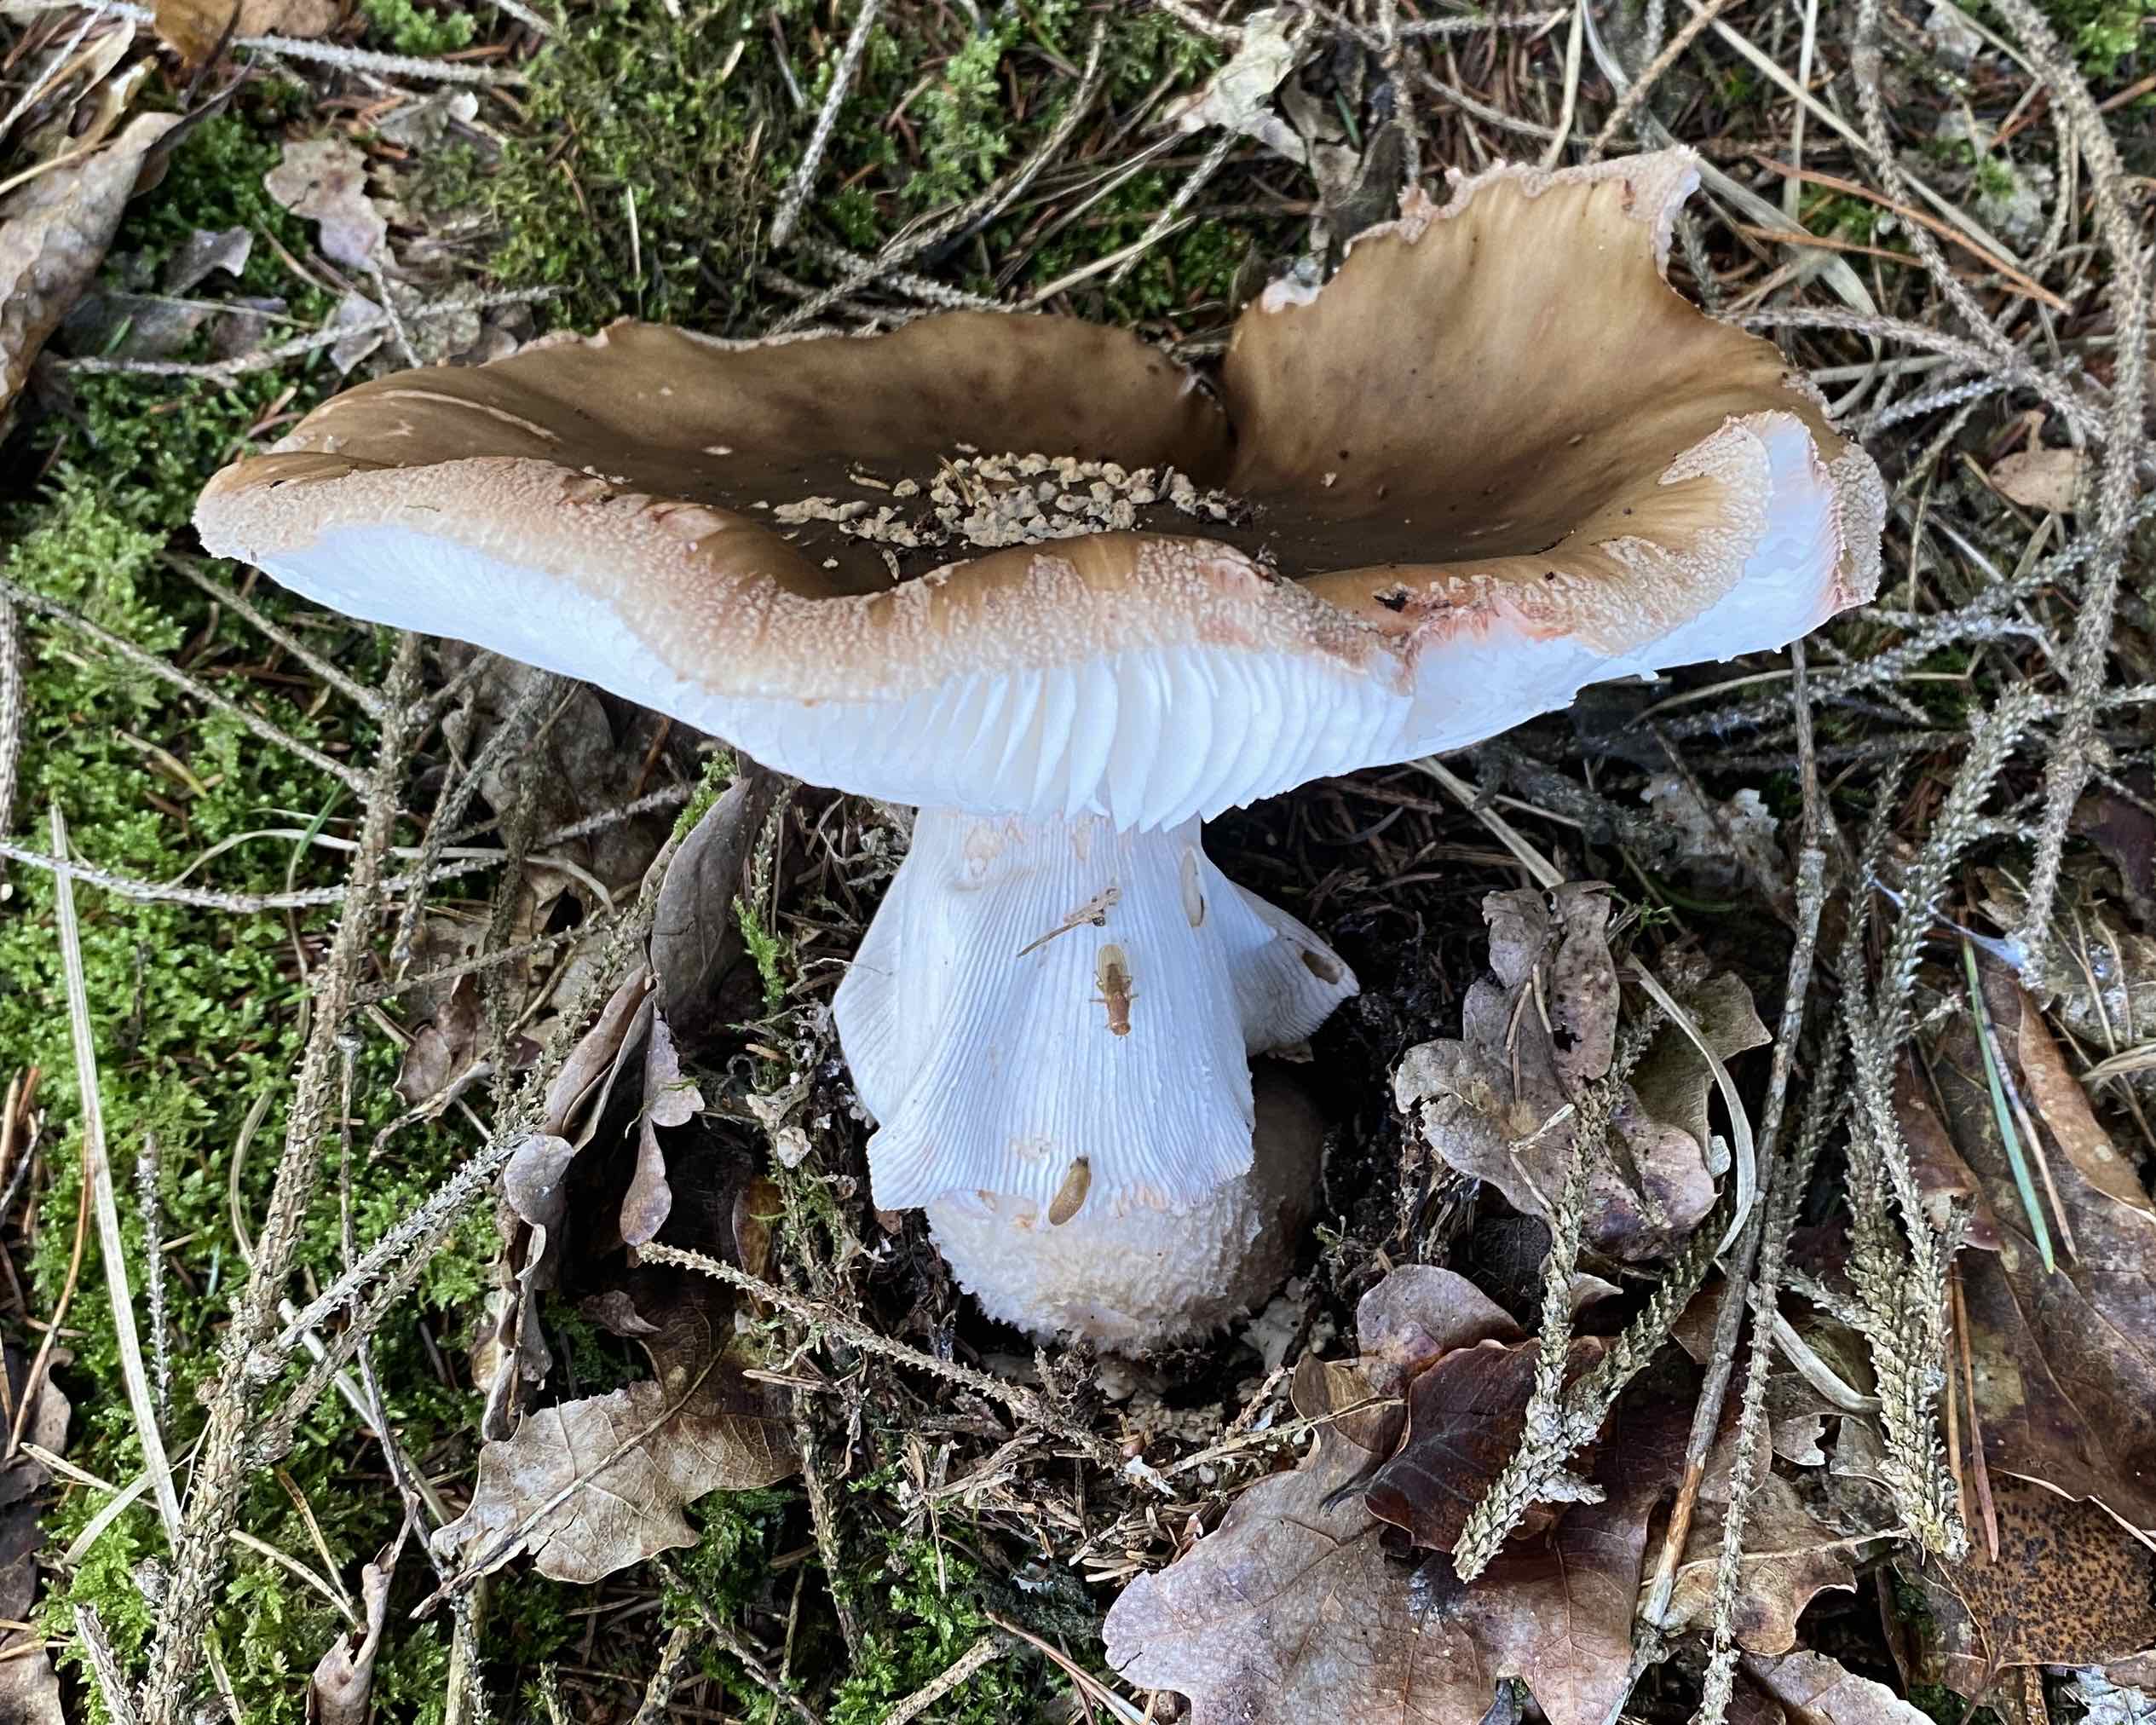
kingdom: Fungi
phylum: Basidiomycota
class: Agaricomycetes
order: Agaricales
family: Amanitaceae
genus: Amanita
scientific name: Amanita rubescens
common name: rødmende fluesvamp
